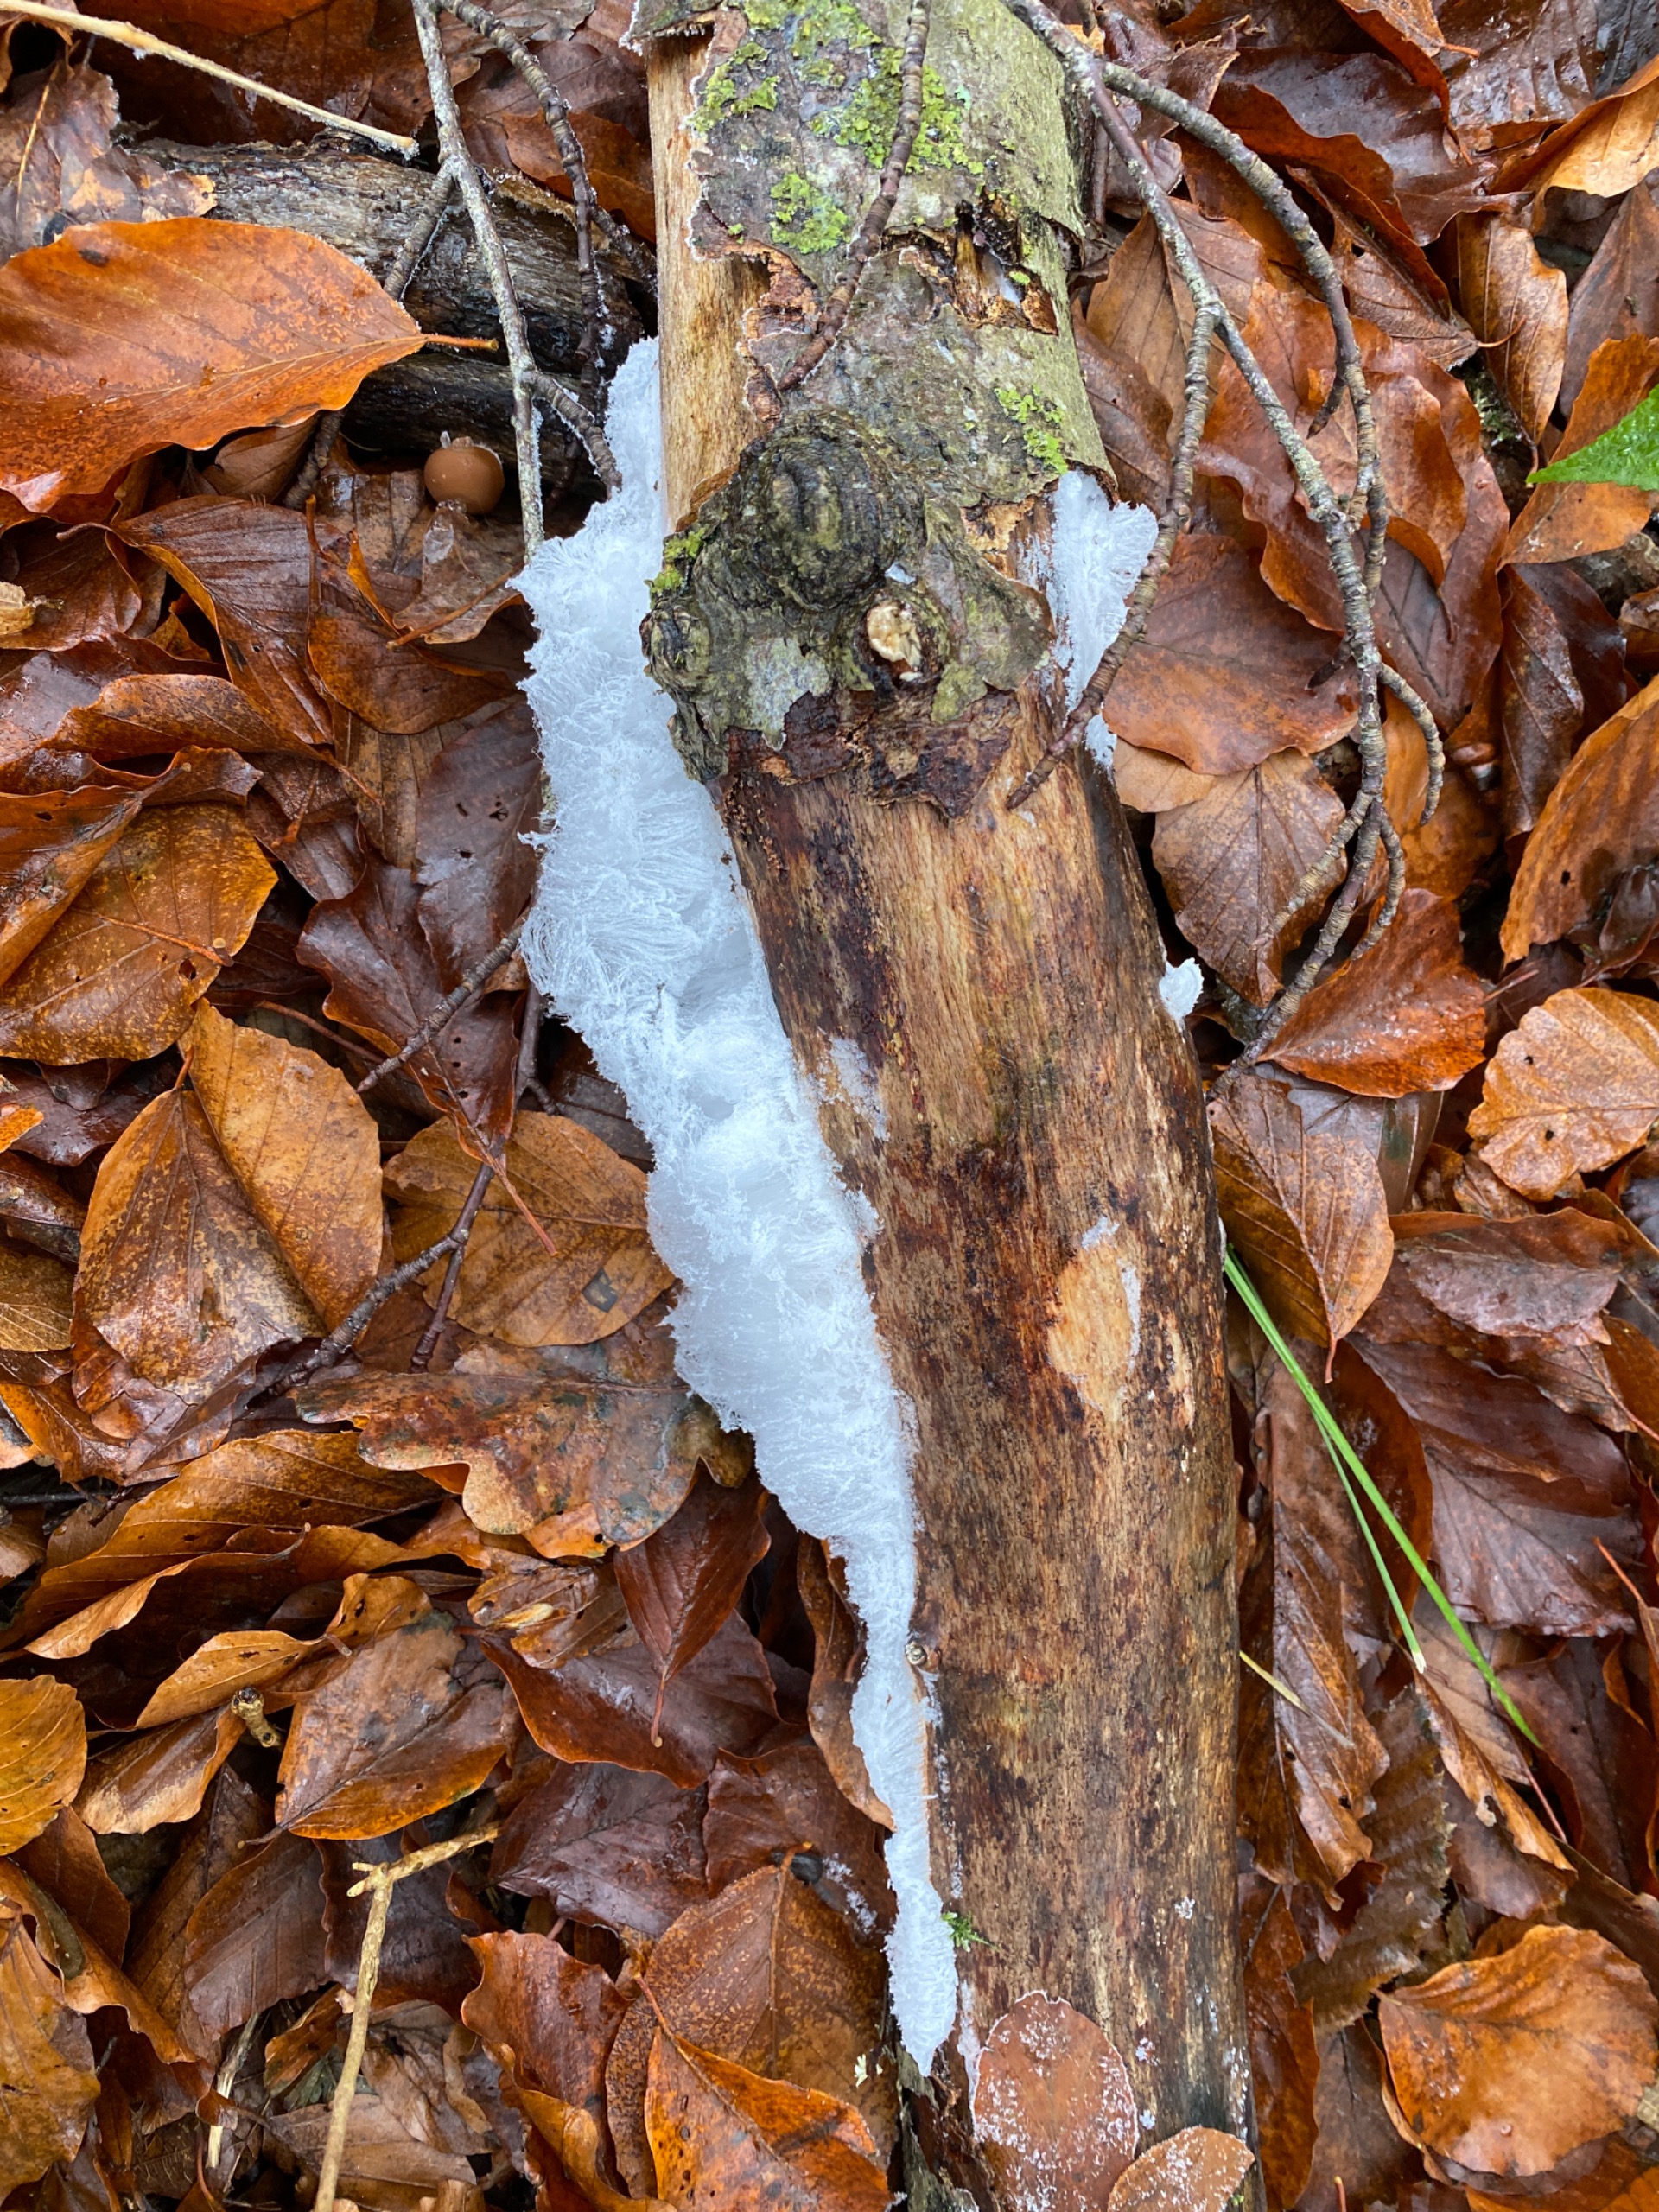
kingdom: Fungi
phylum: Basidiomycota
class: Tremellomycetes
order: Tremellales
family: Exidiaceae
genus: Exidiopsis
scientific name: Exidiopsis effusa
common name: Smuk bævrehinde
